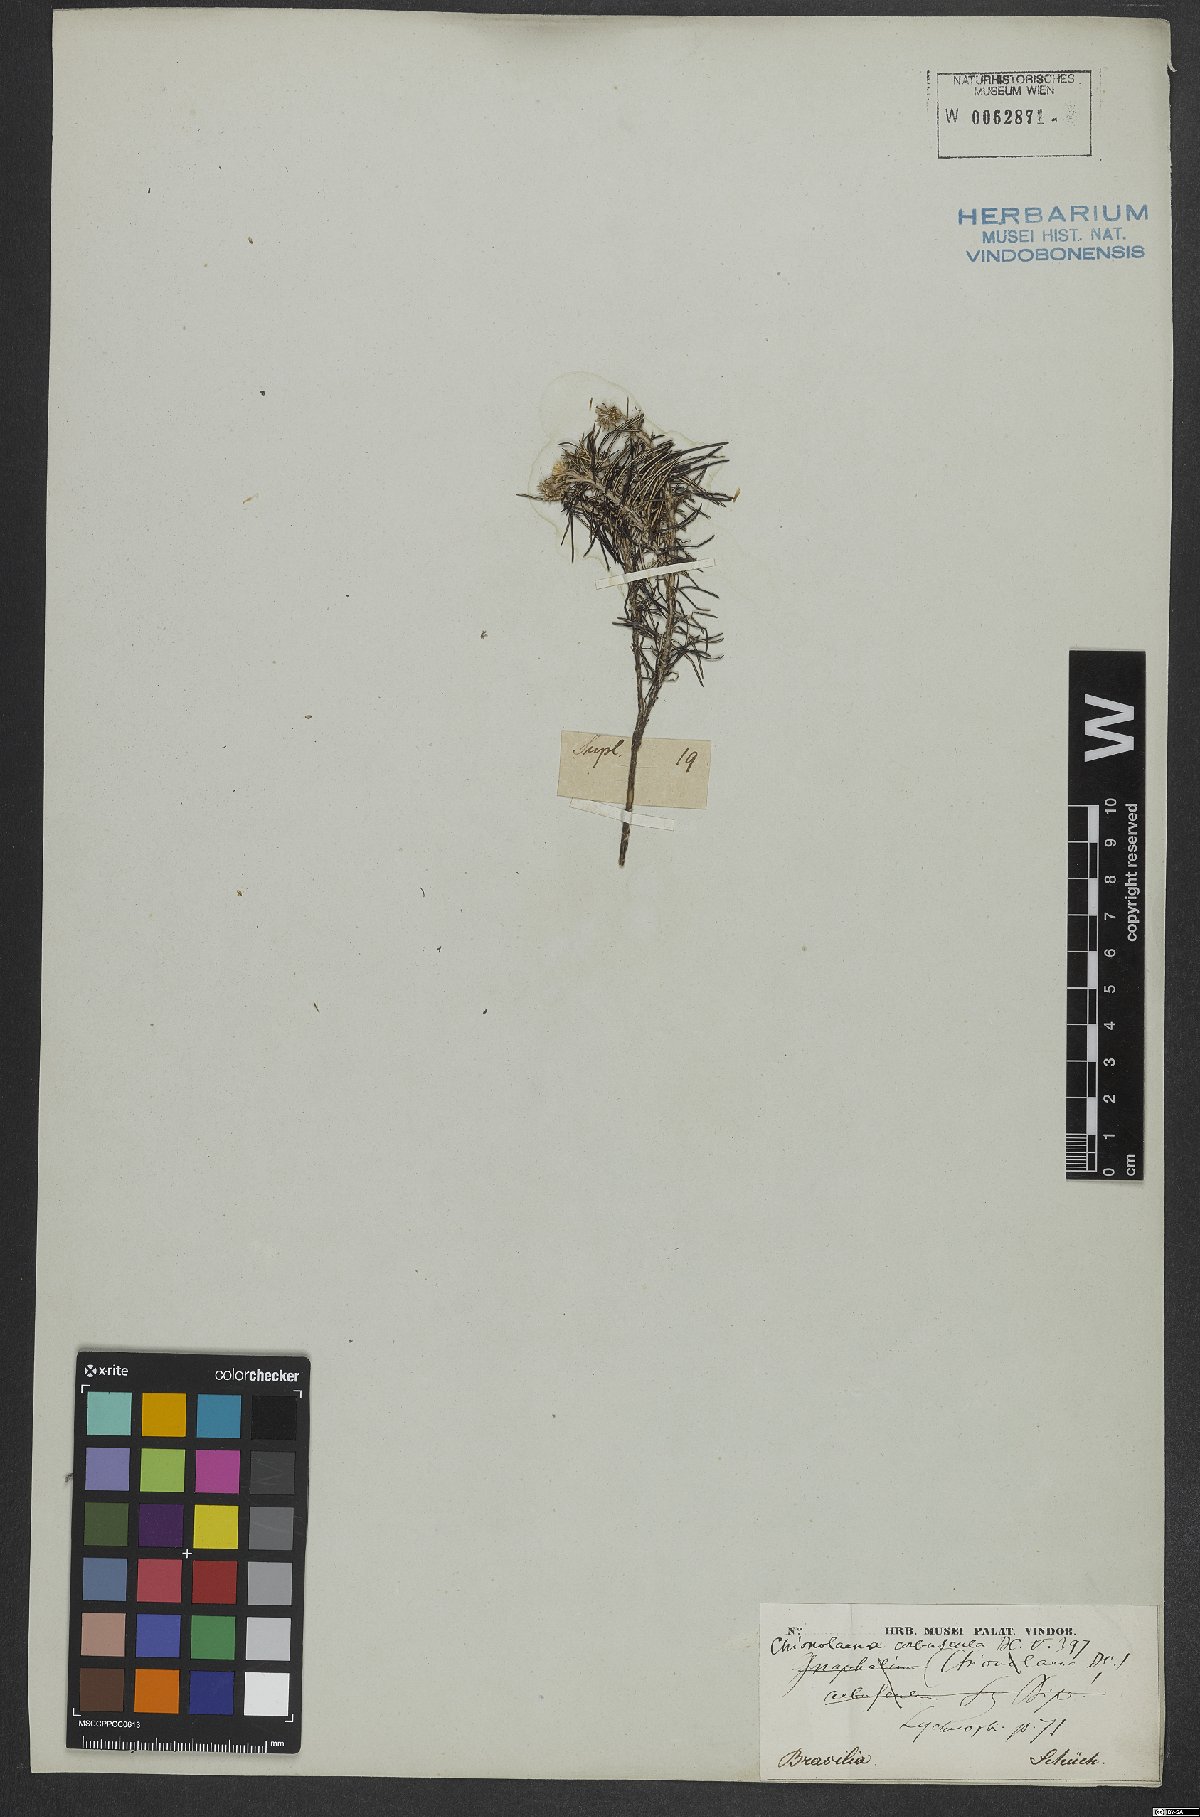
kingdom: Plantae
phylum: Tracheophyta
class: Magnoliopsida
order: Asterales
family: Asteraceae
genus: Chionolaena
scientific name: Chionolaena arbuscula
